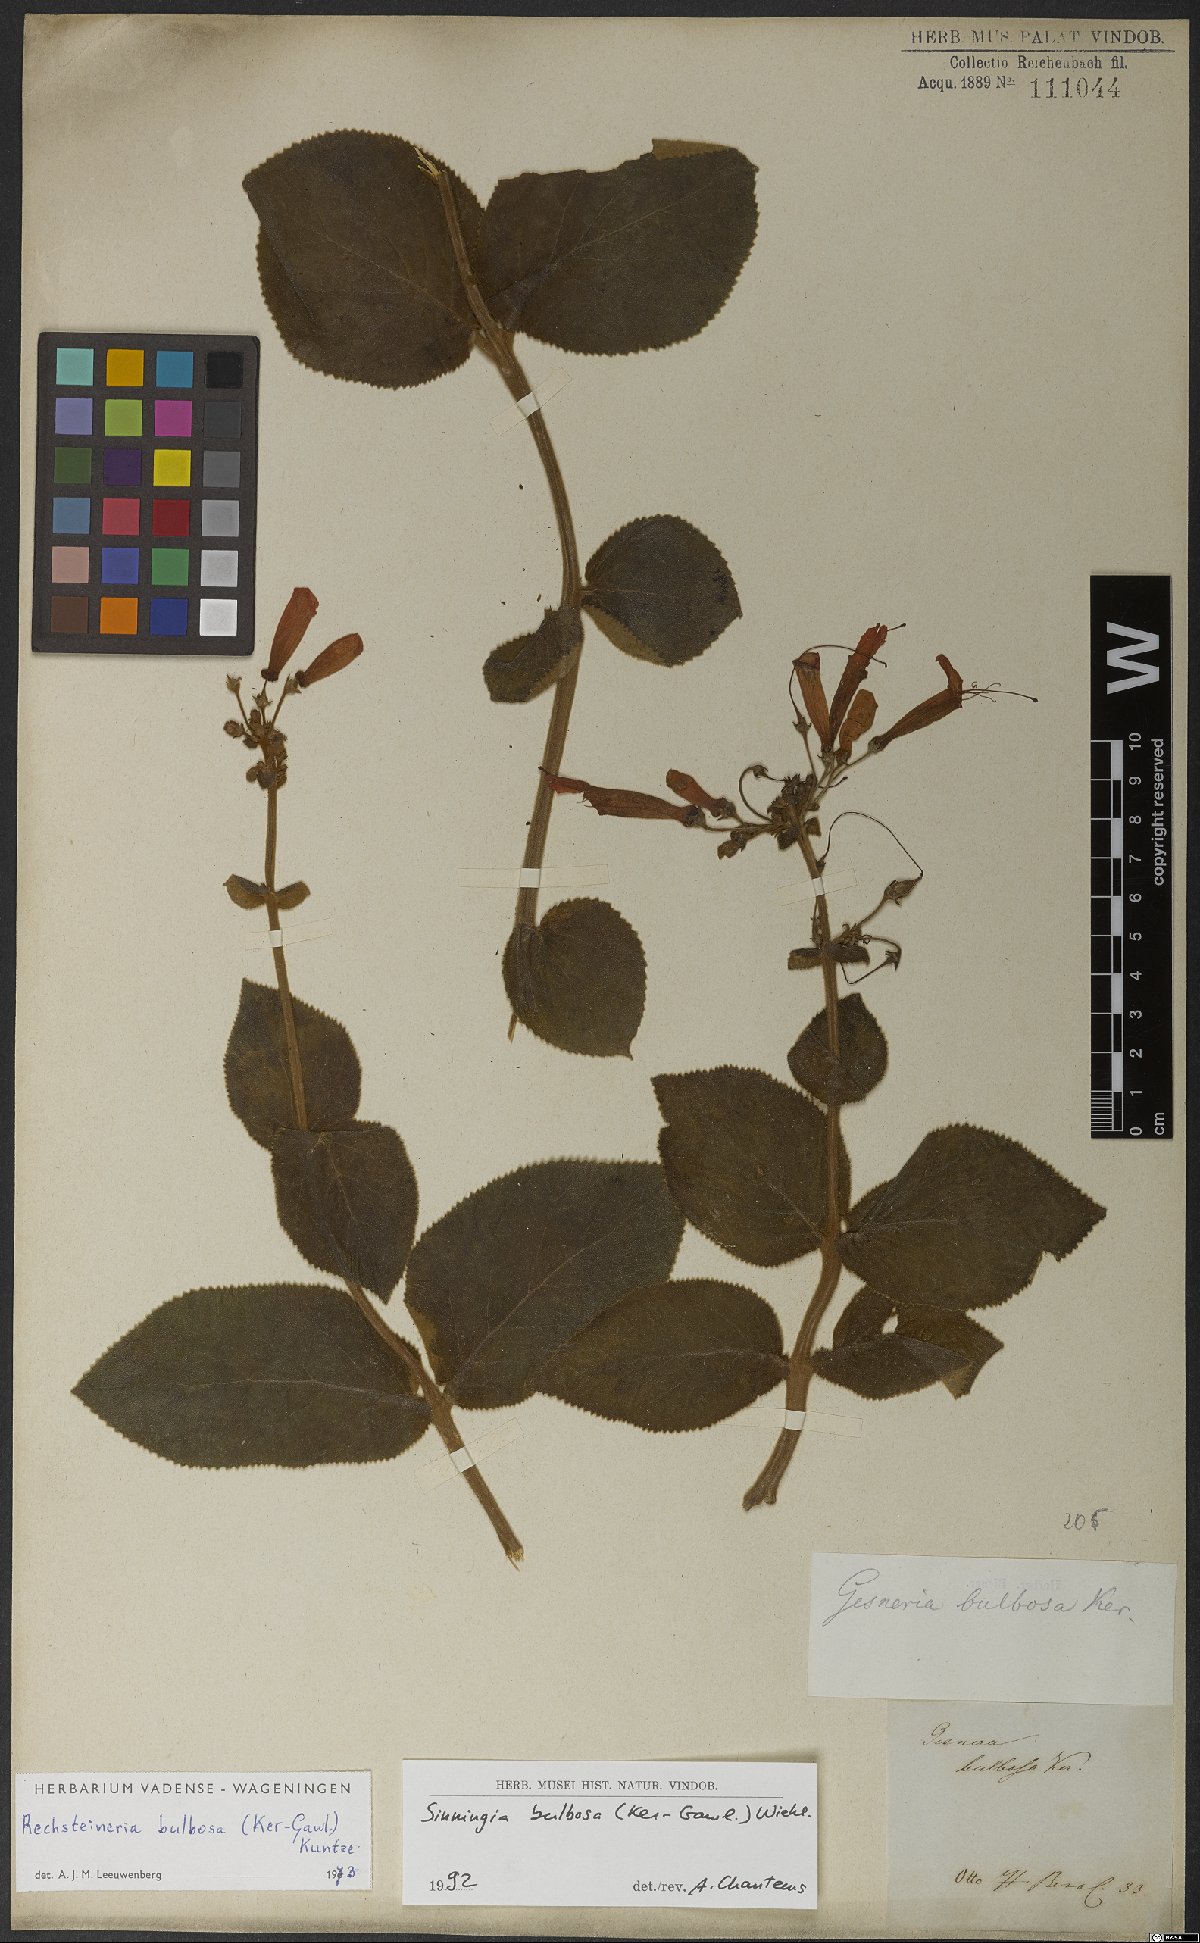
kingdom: Plantae
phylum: Tracheophyta
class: Magnoliopsida
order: Lamiales
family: Gesneriaceae
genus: Sinningia
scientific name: Sinningia bulbosa
